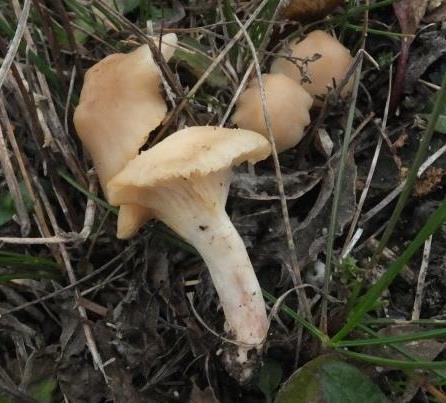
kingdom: Fungi
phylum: Basidiomycota
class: Agaricomycetes
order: Agaricales
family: Hygrophoraceae
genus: Cuphophyllus
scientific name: Cuphophyllus virgineus
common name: isabella-vokshat
